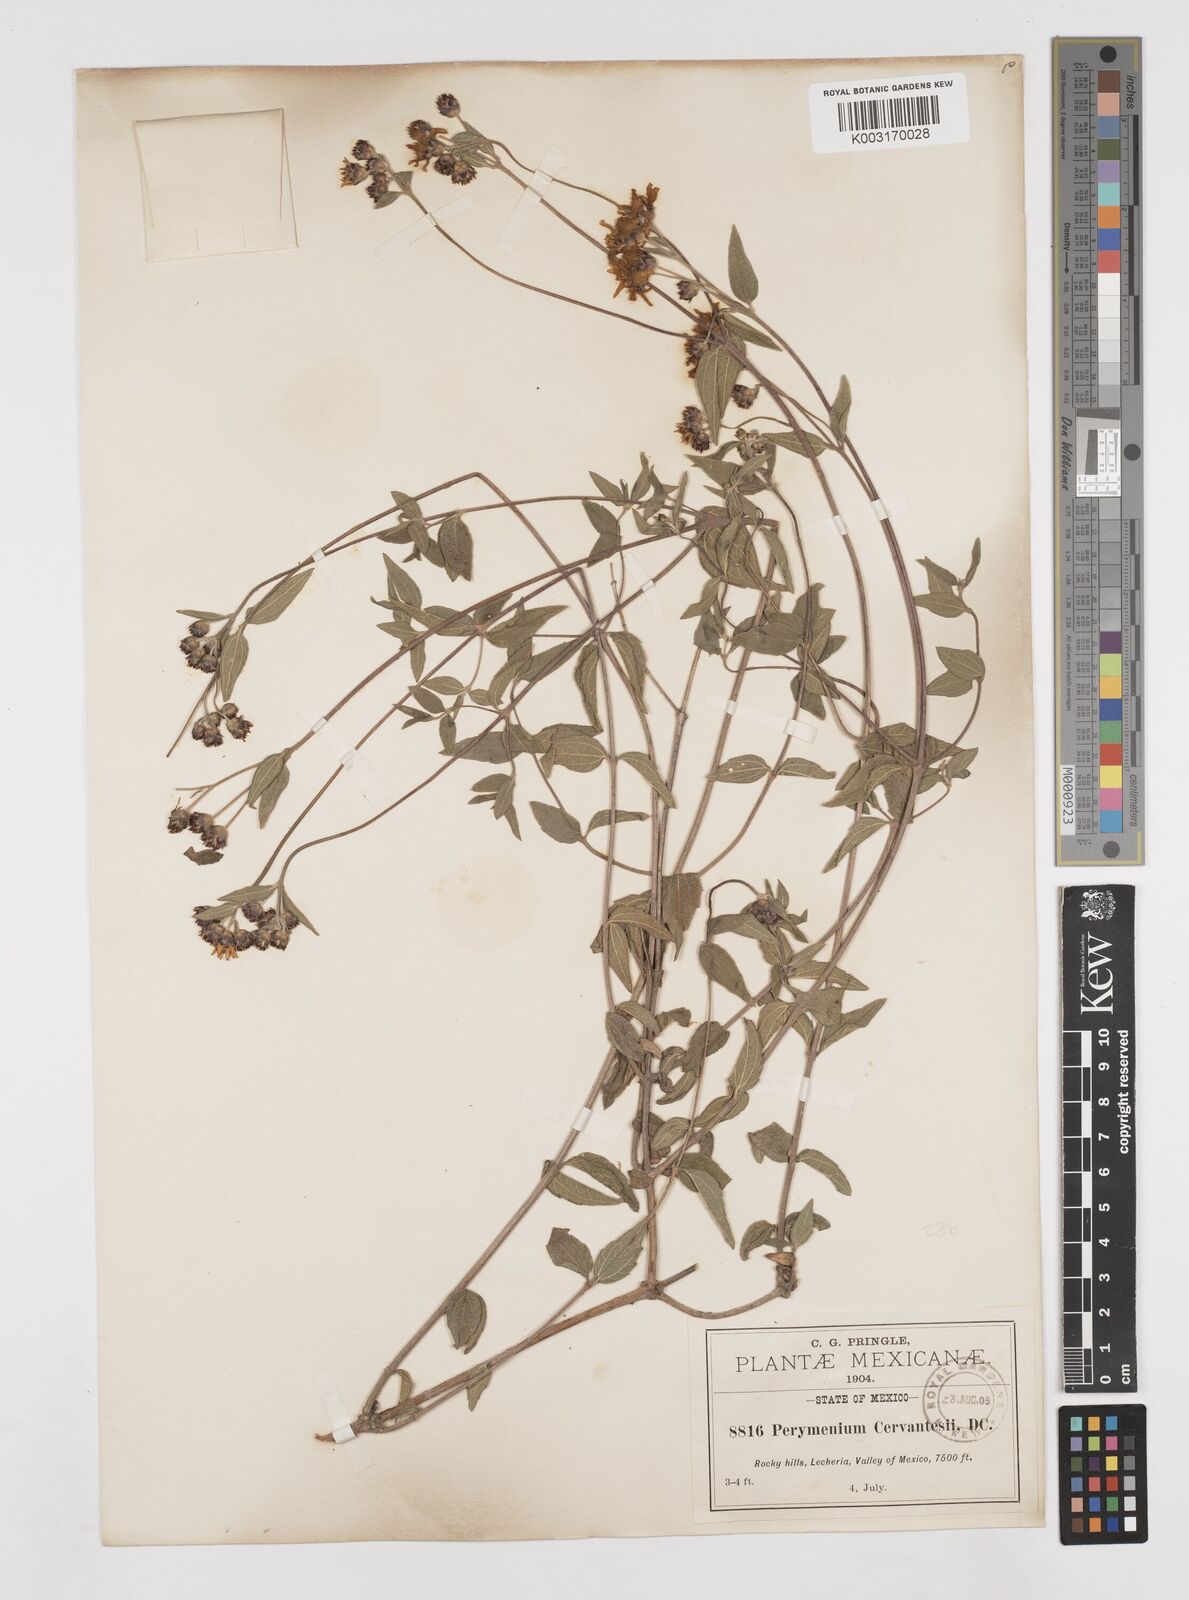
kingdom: Plantae
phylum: Tracheophyta
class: Magnoliopsida
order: Asterales
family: Asteraceae
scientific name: Asteraceae
